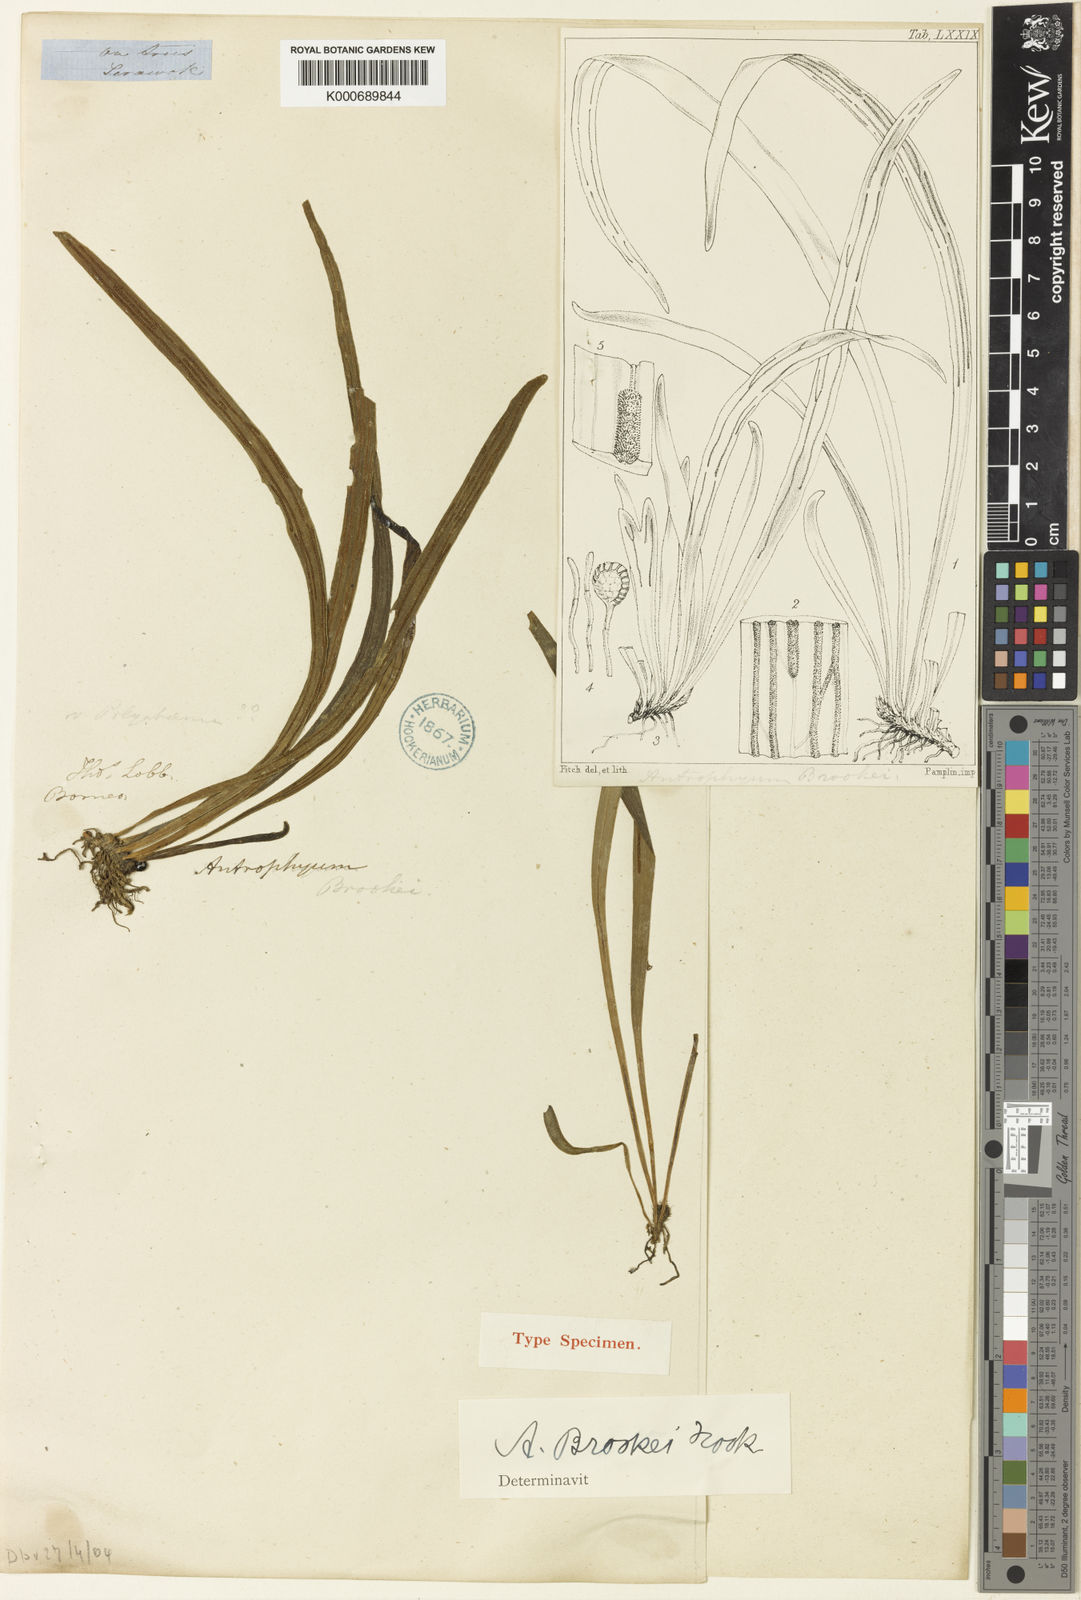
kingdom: Plantae
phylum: Tracheophyta
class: Polypodiopsida
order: Polypodiales
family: Pteridaceae
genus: Antrophyum
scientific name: Antrophyum brookei
